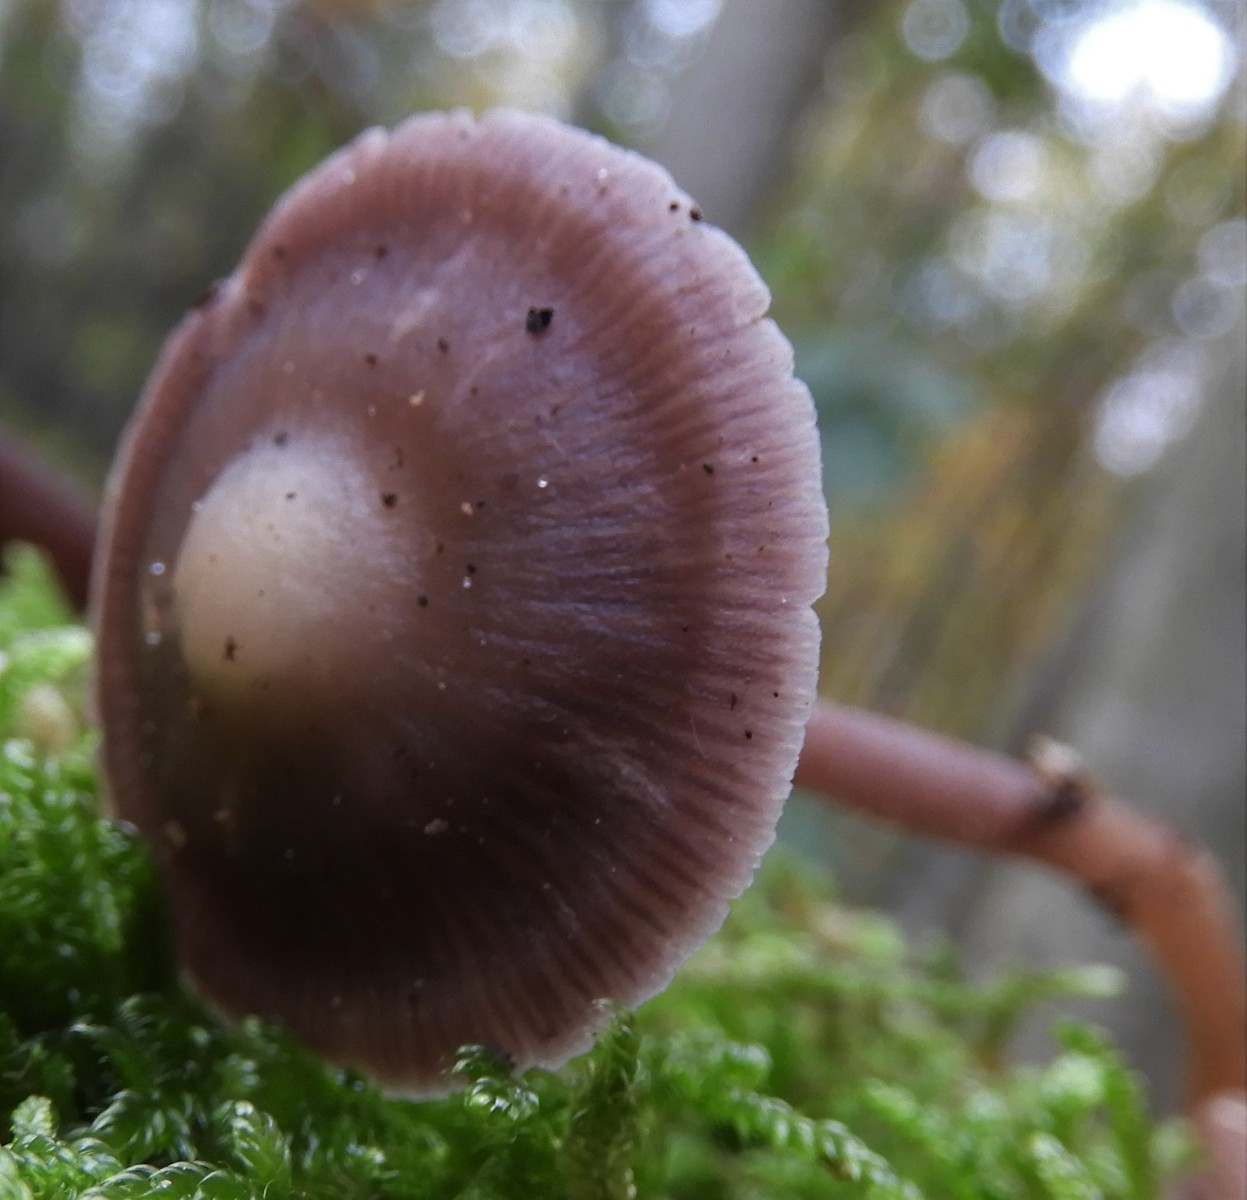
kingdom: Fungi
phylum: Basidiomycota
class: Agaricomycetes
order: Agaricales
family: Mycenaceae
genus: Prunulus
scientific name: Prunulus diosmus
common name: tobaks-huesvamp
